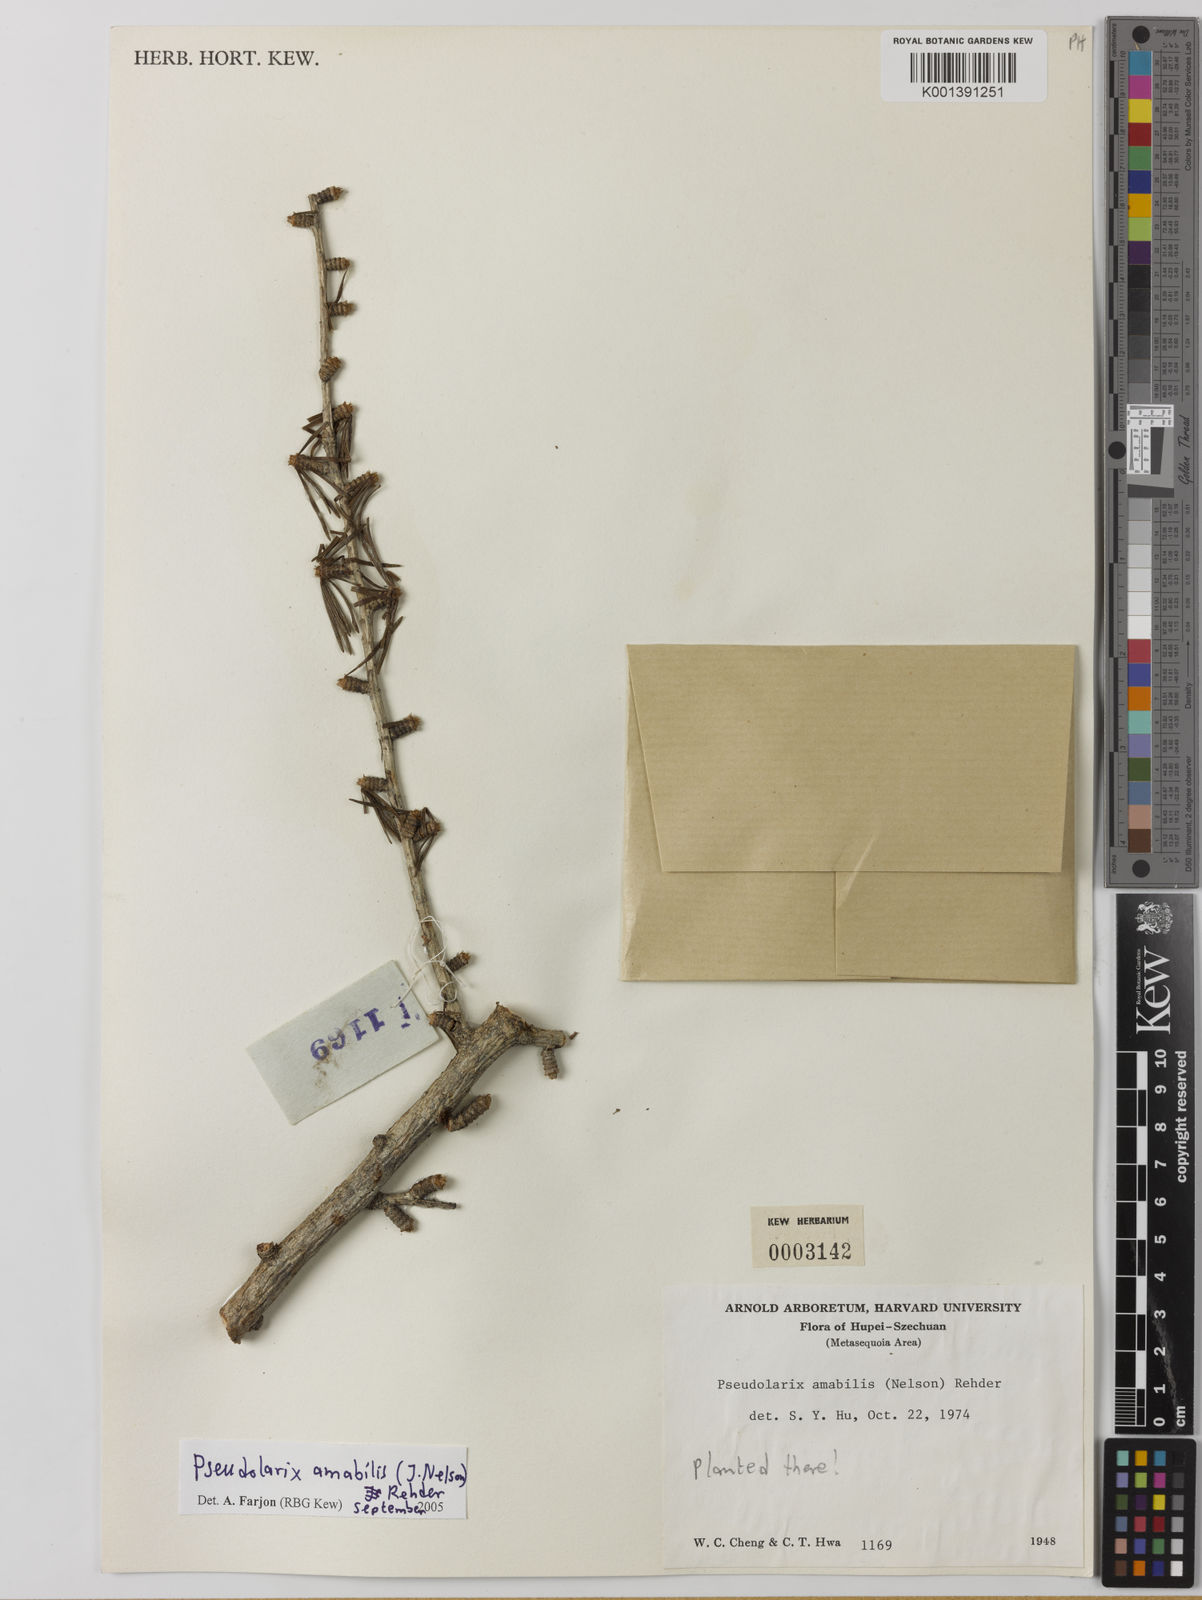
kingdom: Plantae
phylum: Tracheophyta
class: Pinopsida
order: Pinales
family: Pinaceae
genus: Pseudolarix
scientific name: Pseudolarix amabilis
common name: Chinese golden larch
